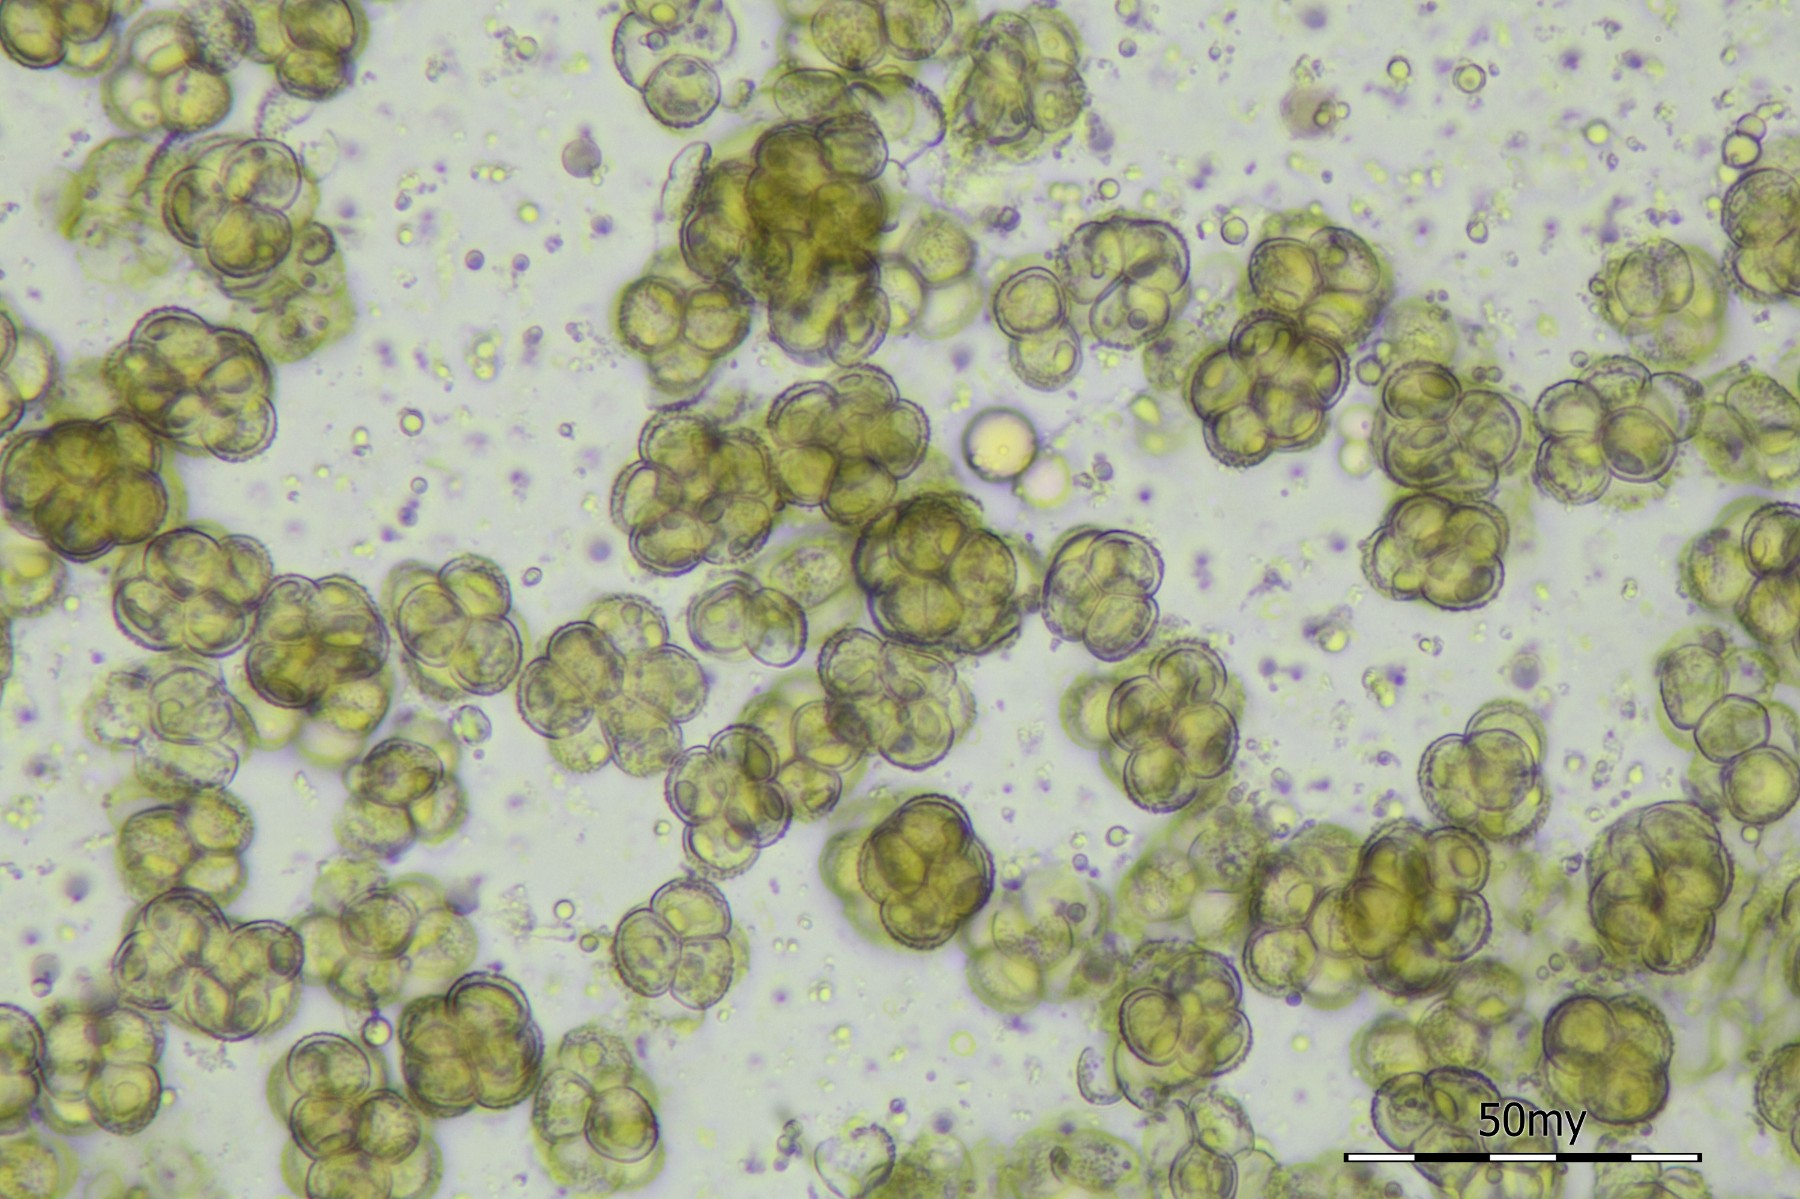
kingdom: Protozoa
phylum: Mycetozoa
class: Myxomycetes
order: Cribrariales
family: Tubiferaceae
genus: Licaethalium
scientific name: Licaethalium olivaceum
